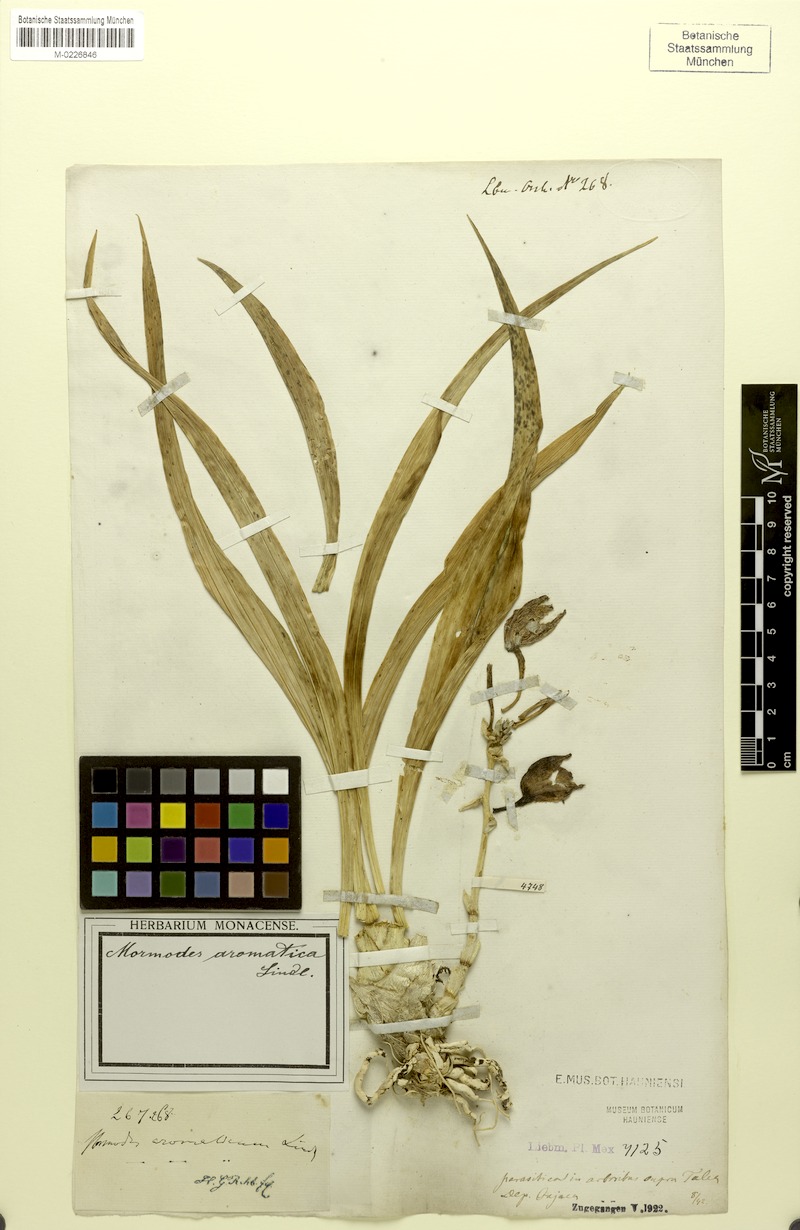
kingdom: Plantae
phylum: Tracheophyta
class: Liliopsida
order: Asparagales
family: Orchidaceae
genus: Mormodes
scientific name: Mormodes aromatica
